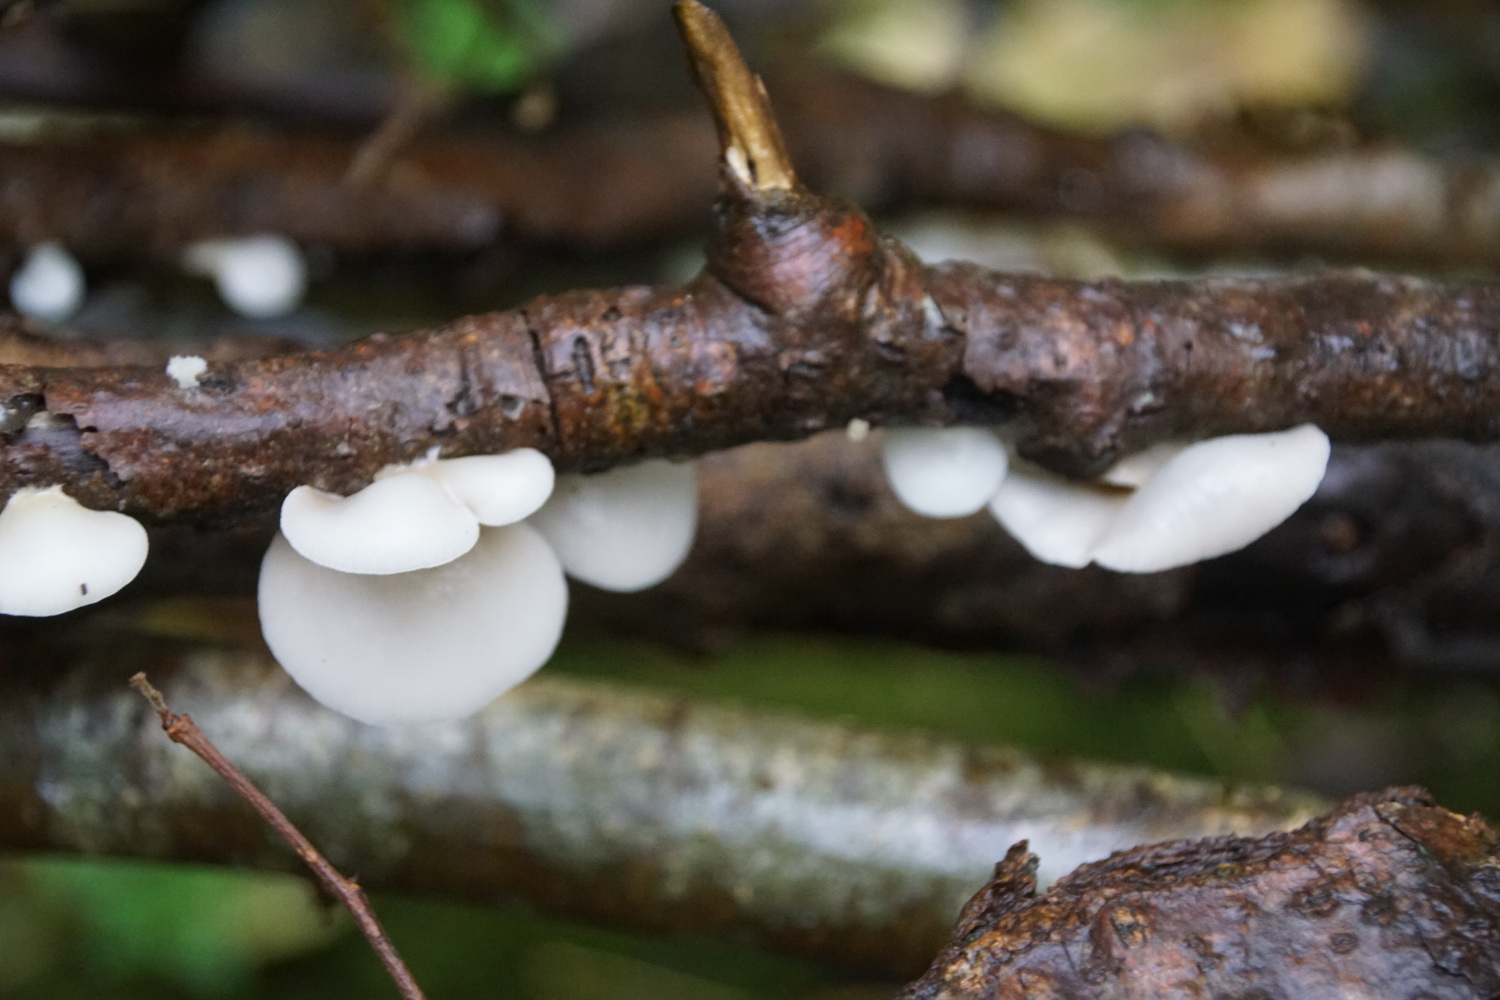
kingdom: Fungi
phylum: Basidiomycota
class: Agaricomycetes
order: Agaricales
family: Crepidotaceae
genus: Crepidotus
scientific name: Crepidotus mollis
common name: blød muslingesvamp
